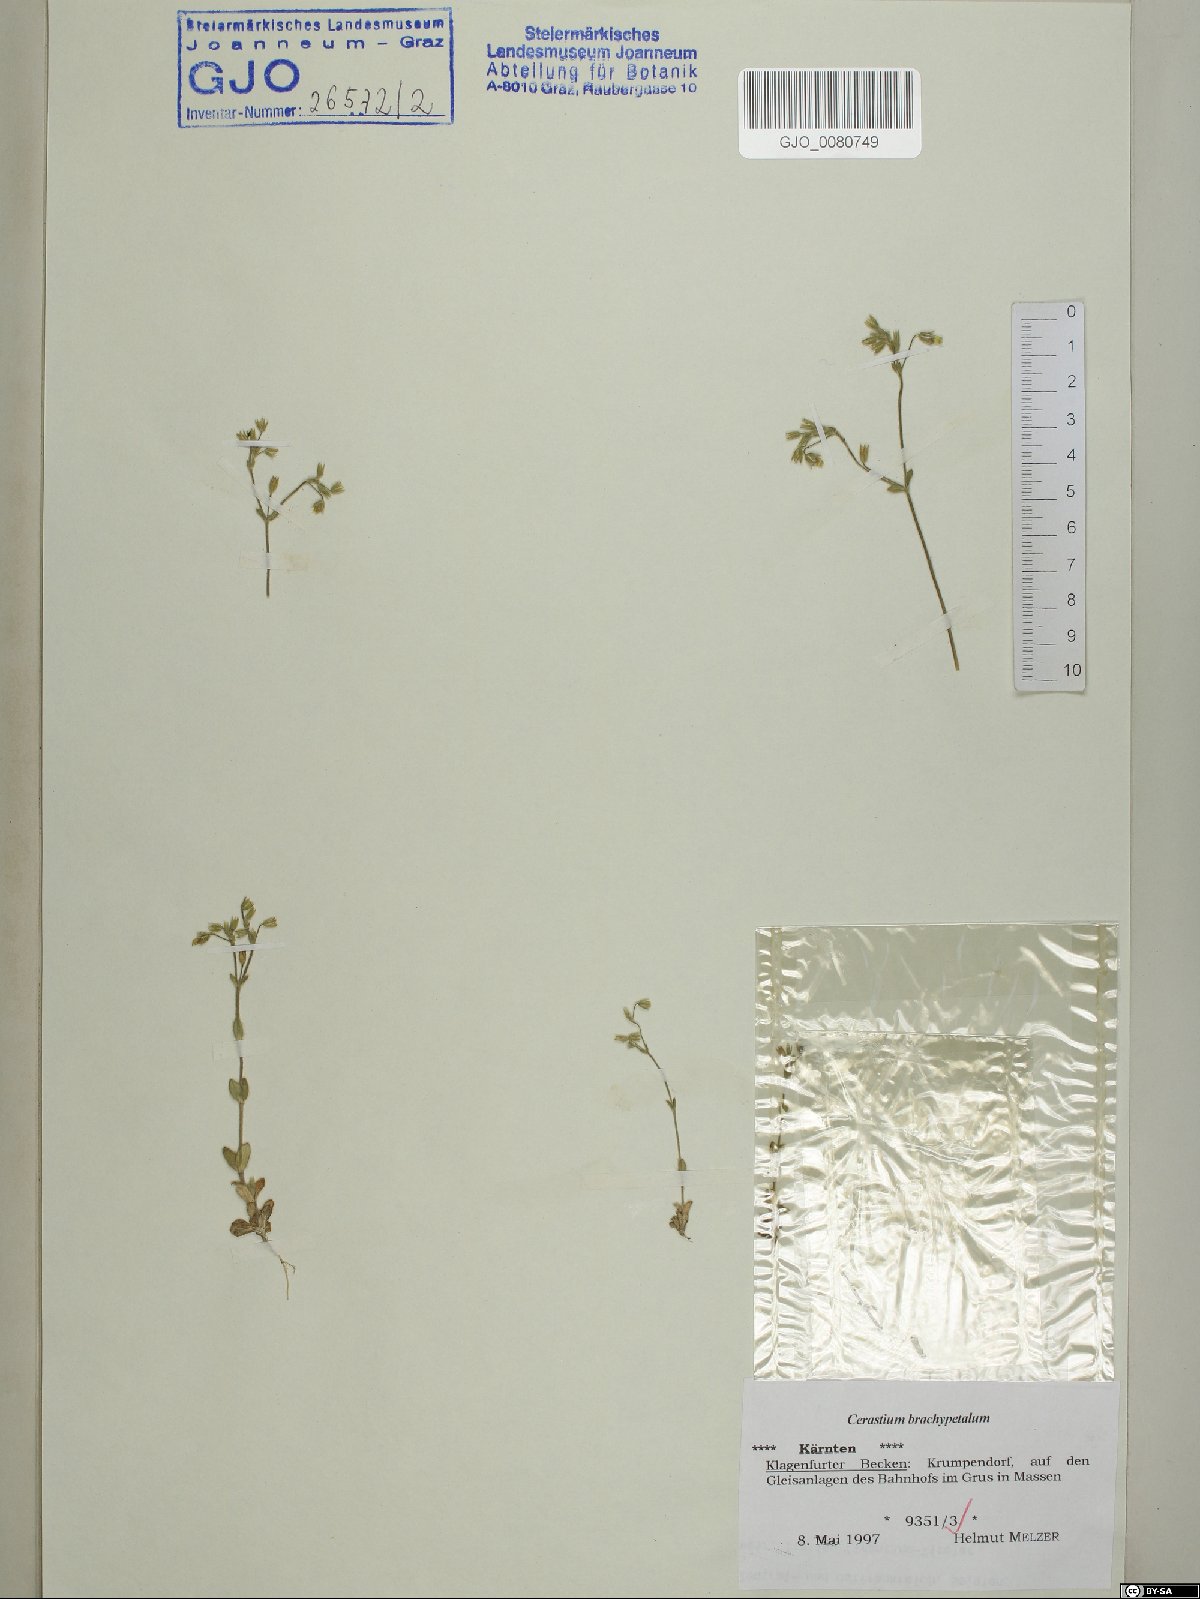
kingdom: Plantae
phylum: Tracheophyta
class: Magnoliopsida
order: Caryophyllales
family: Caryophyllaceae
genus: Cerastium
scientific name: Cerastium brachypetalum
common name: Grey mouse-ear
